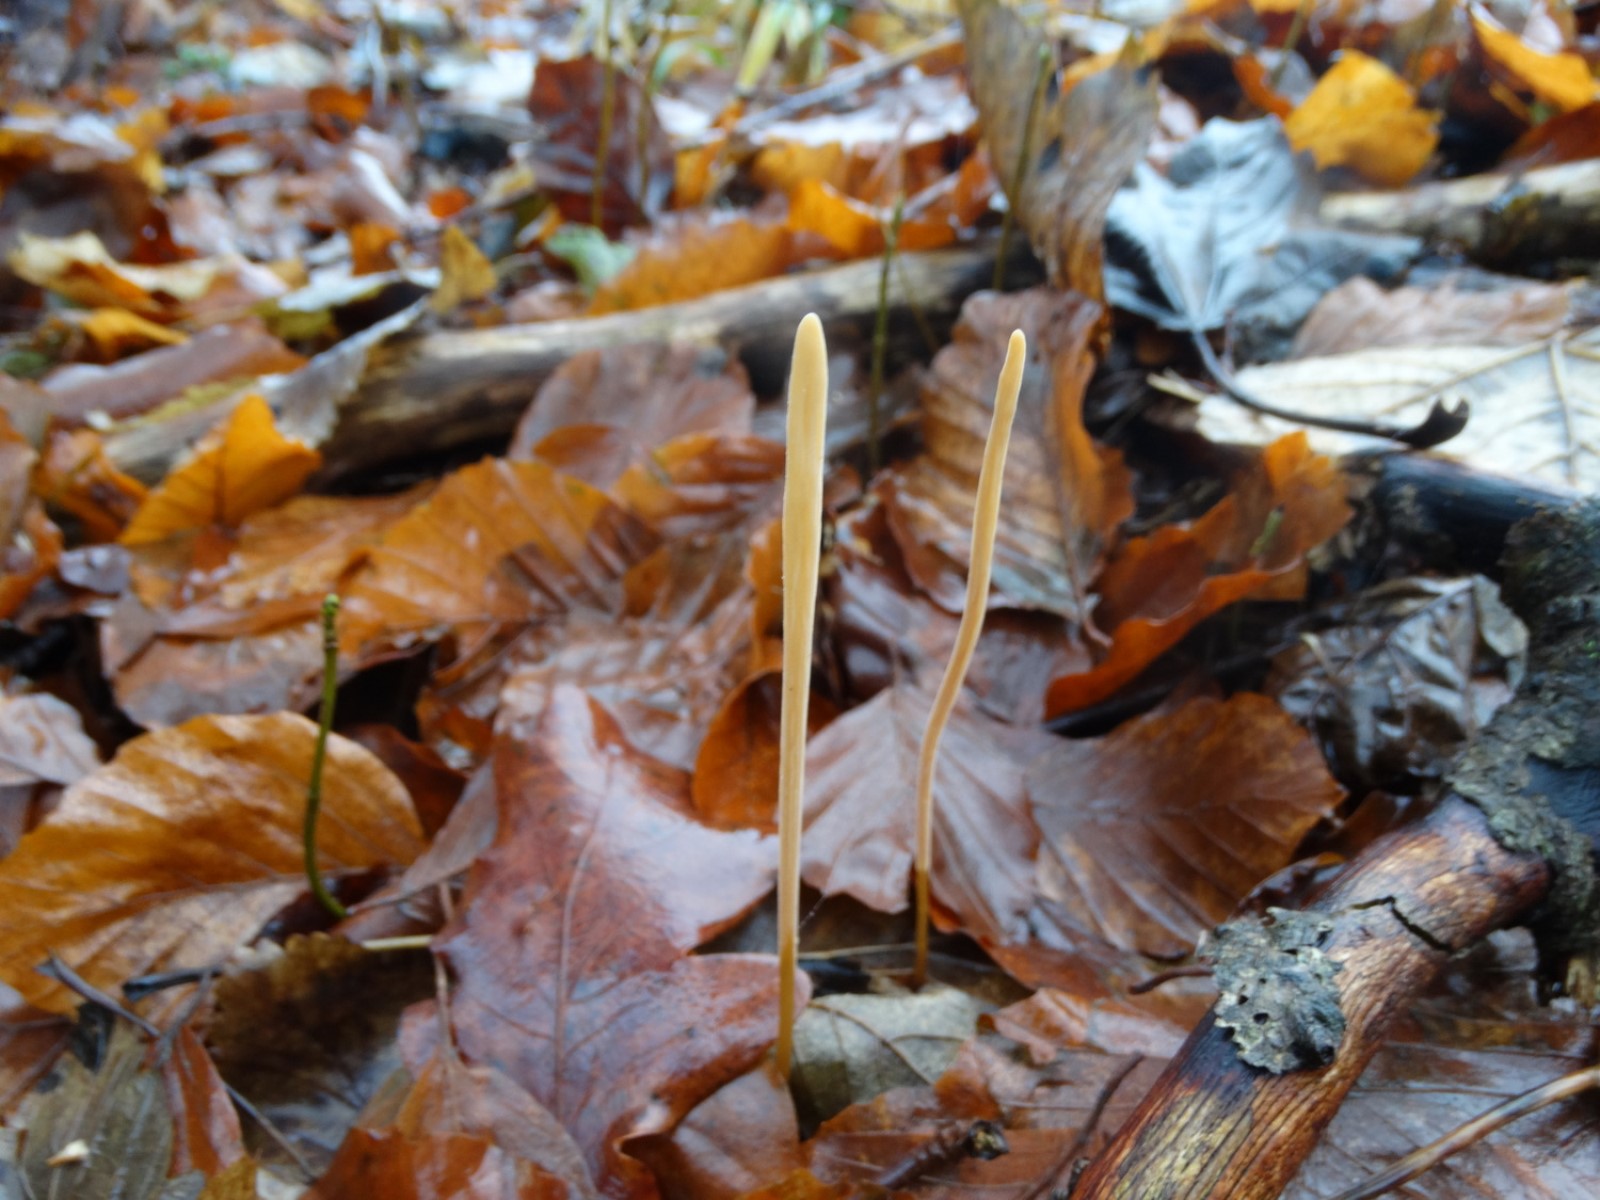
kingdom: Fungi
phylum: Basidiomycota
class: Agaricomycetes
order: Agaricales
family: Typhulaceae
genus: Typhula
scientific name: Typhula fistulosa
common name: pibet rørkølle
